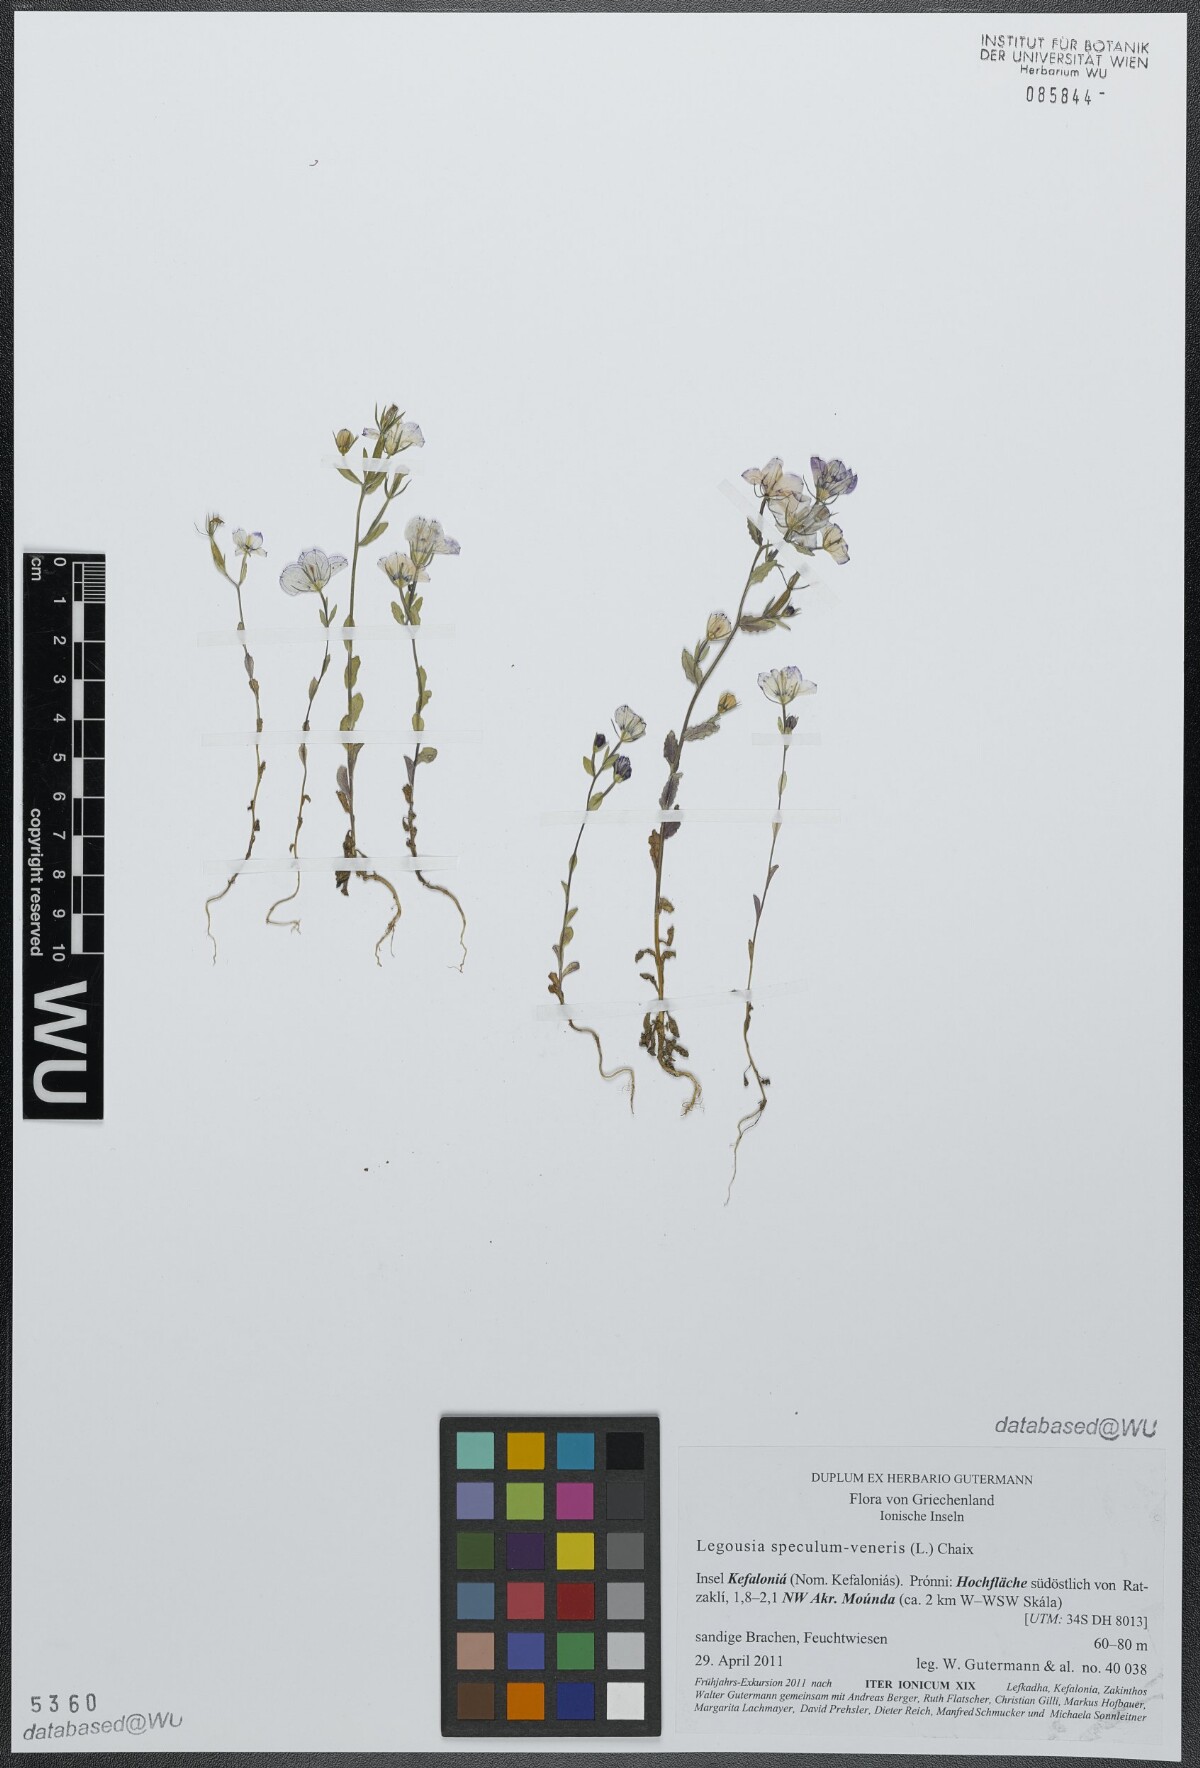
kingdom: Plantae
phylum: Tracheophyta
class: Magnoliopsida
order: Asterales
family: Campanulaceae
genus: Legousia
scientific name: Legousia speculum-veneris
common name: Large venus's-looking-glass
